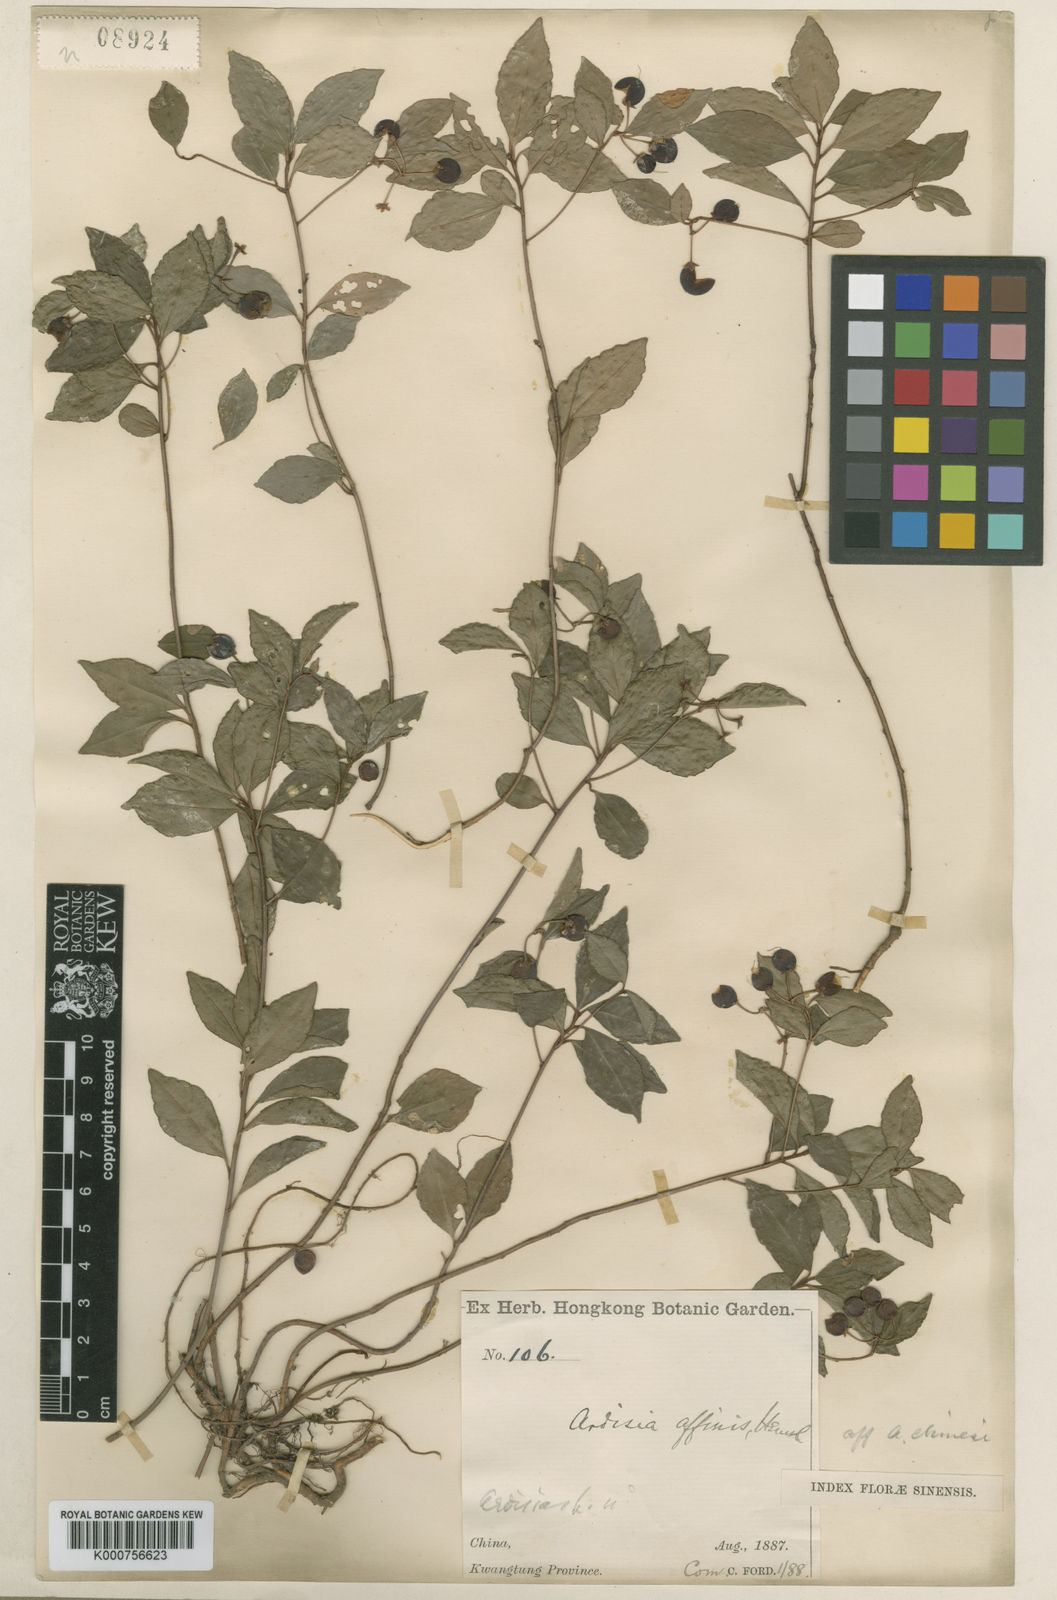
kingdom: Plantae
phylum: Tracheophyta
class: Magnoliopsida
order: Ericales
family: Primulaceae
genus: Ardisia
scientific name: Ardisia affinis
